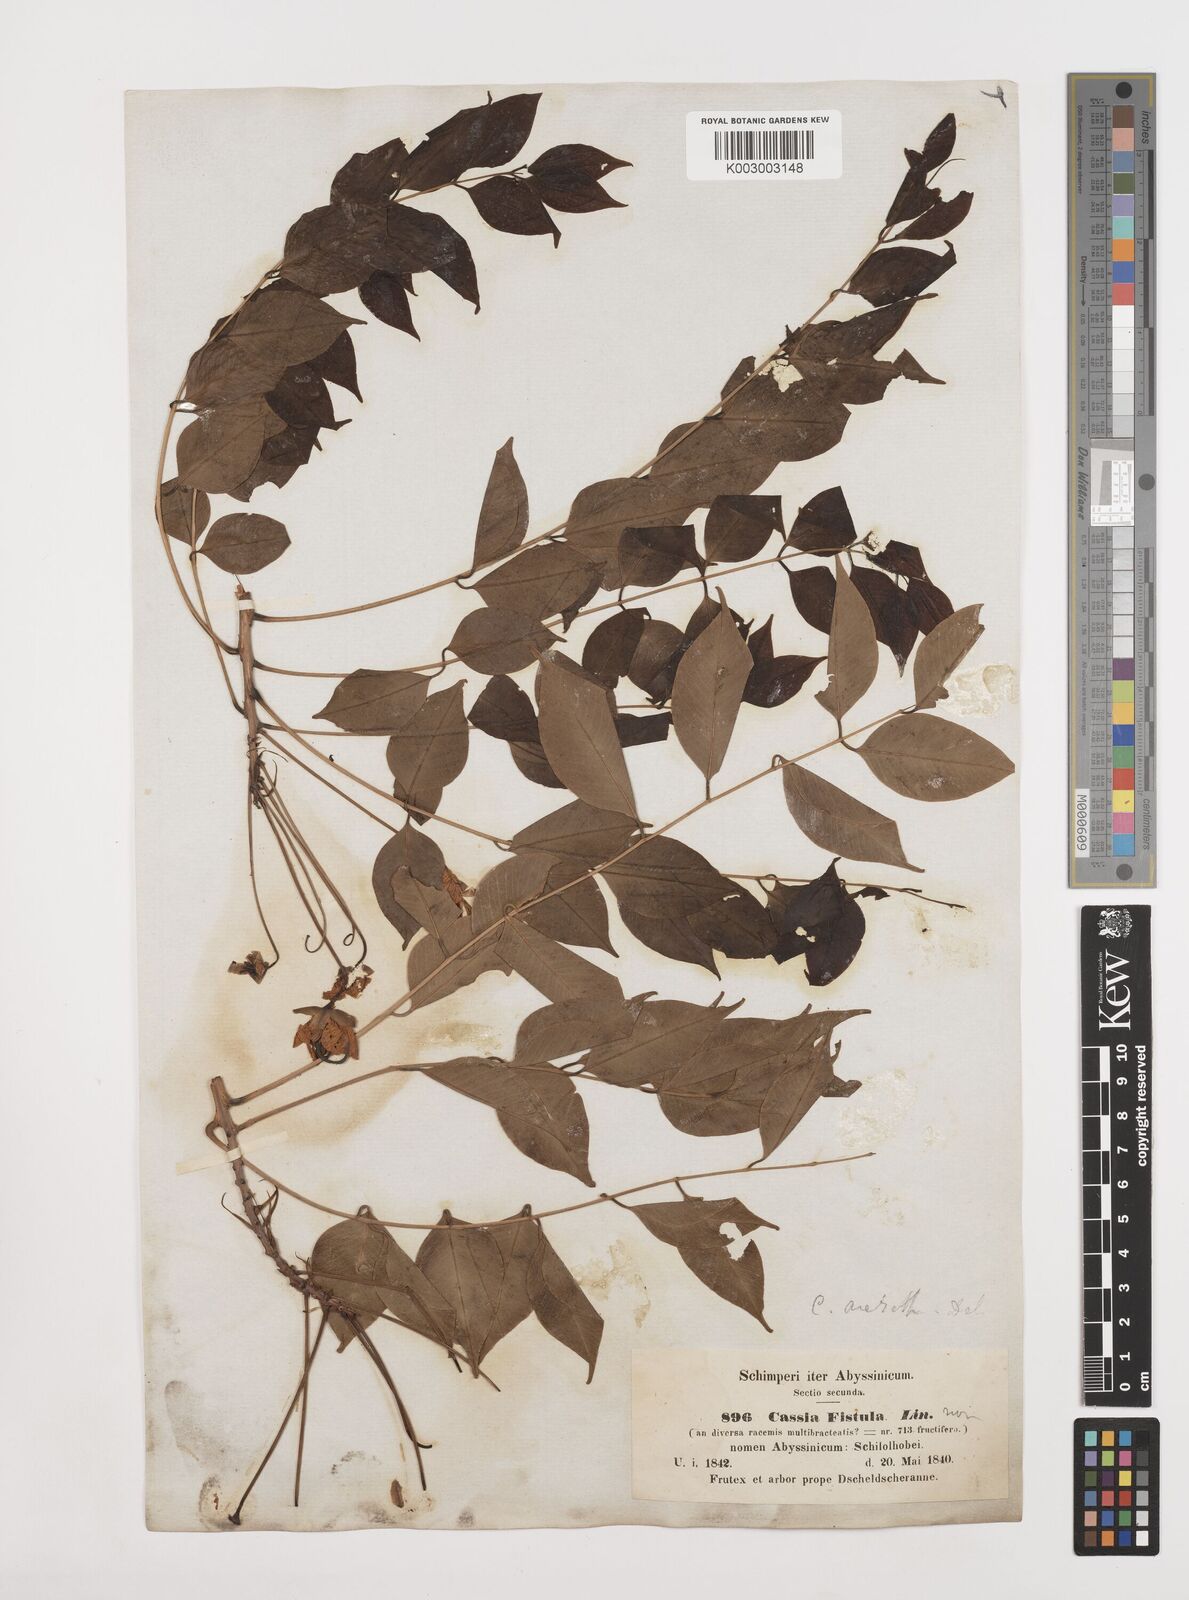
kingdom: Plantae
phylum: Tracheophyta
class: Magnoliopsida
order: Fabales
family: Fabaceae
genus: Cassia
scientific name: Cassia arereh
